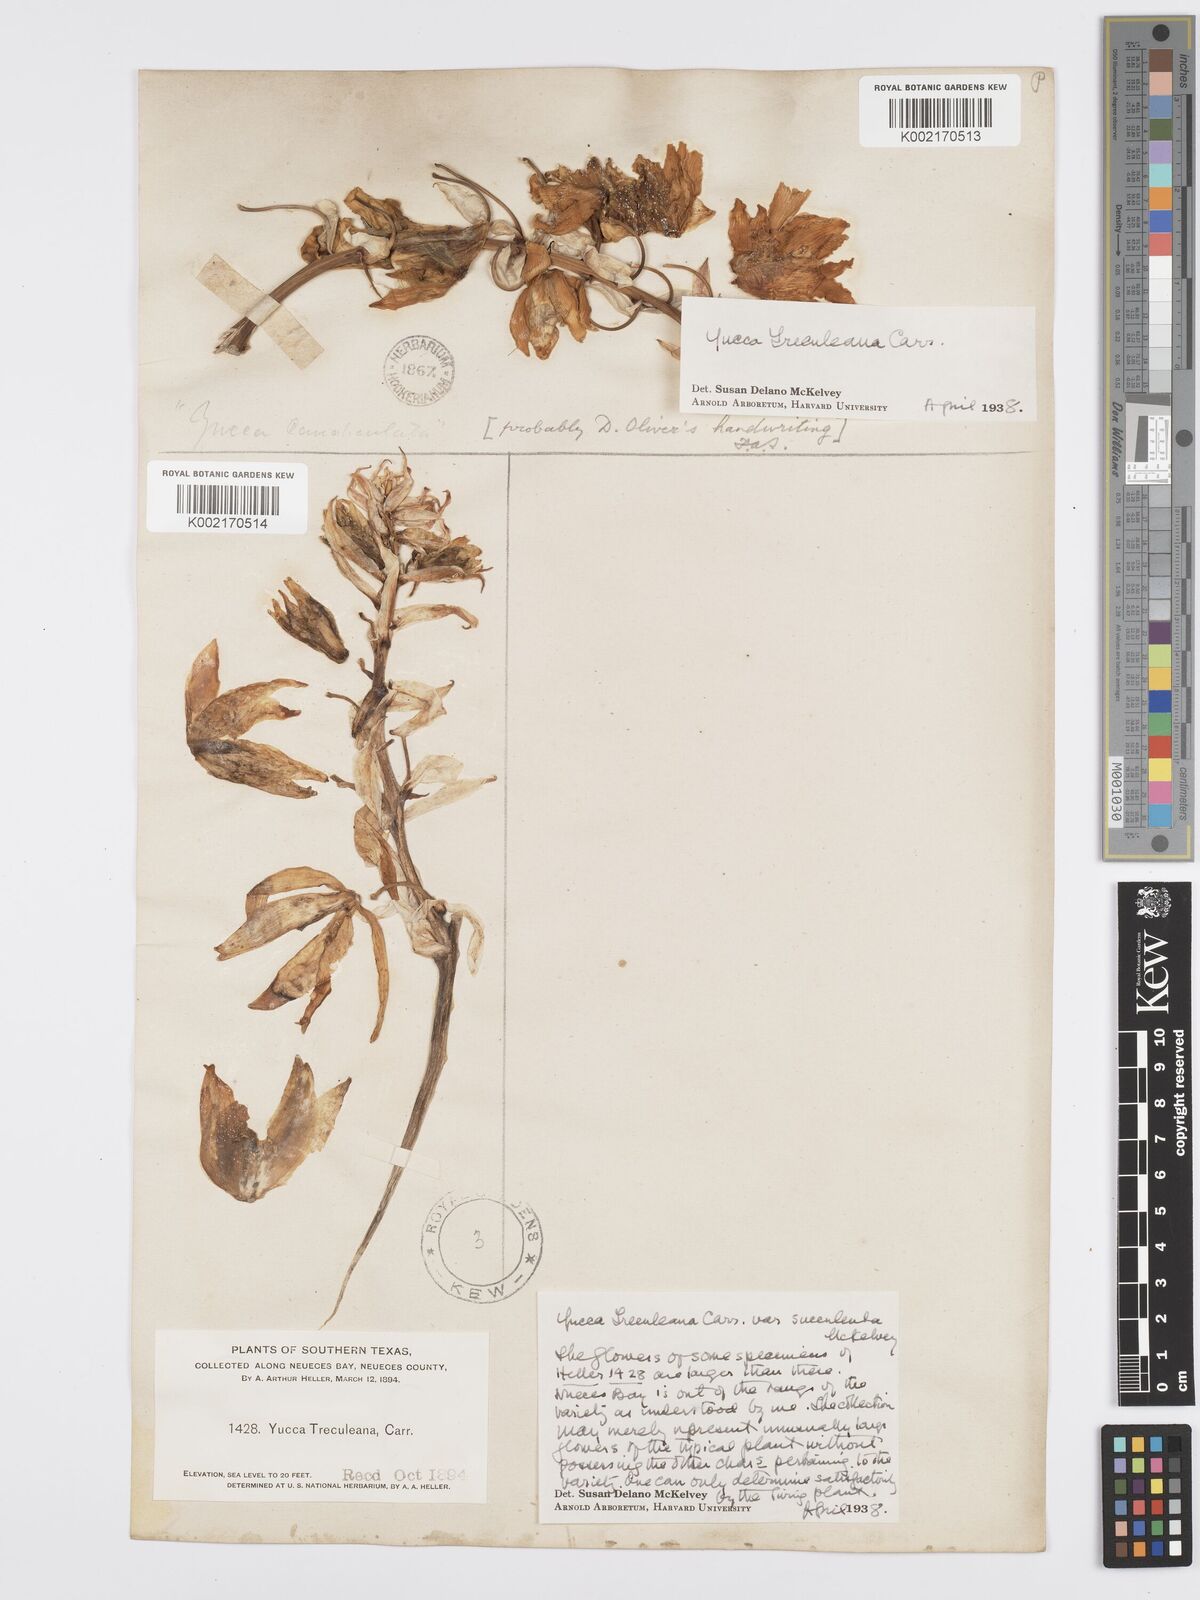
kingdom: Plantae
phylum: Tracheophyta
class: Liliopsida
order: Asparagales
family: Asparagaceae
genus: Yucca
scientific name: Yucca treculeana
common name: Spanish bayonet
